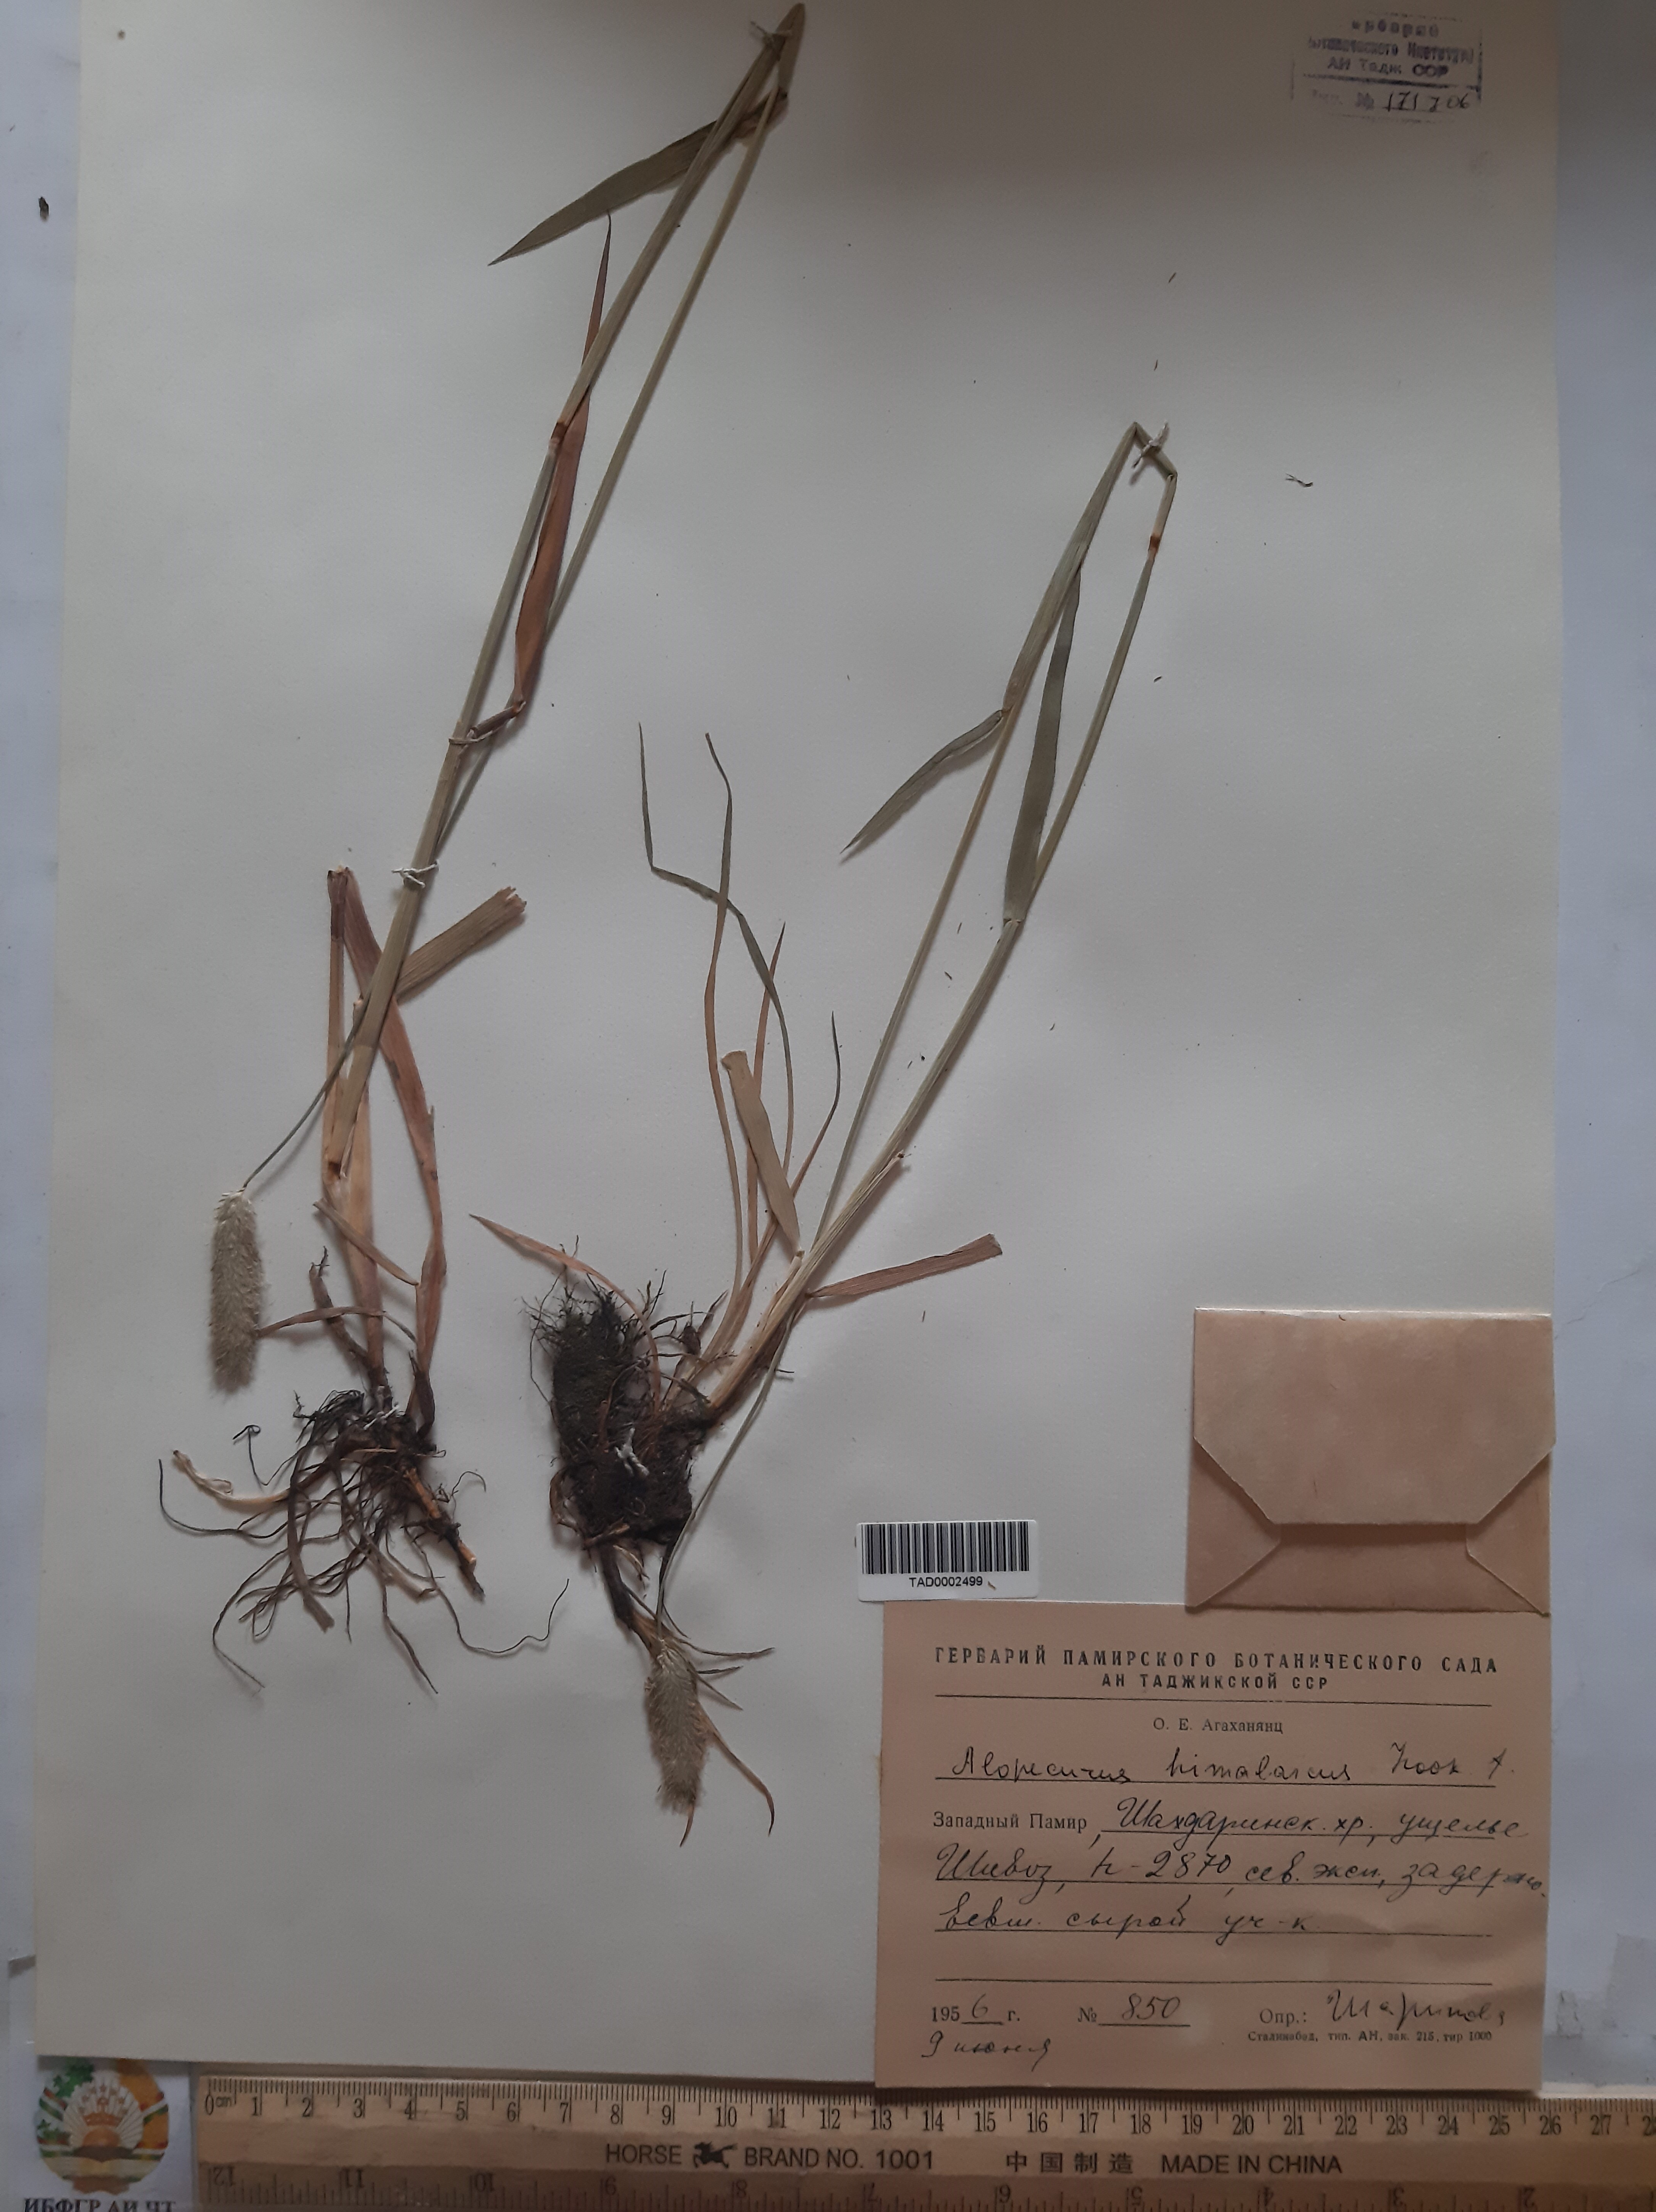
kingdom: Plantae
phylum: Tracheophyta
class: Liliopsida
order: Poales
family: Poaceae
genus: Alopecurus
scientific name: Alopecurus himalaicus
